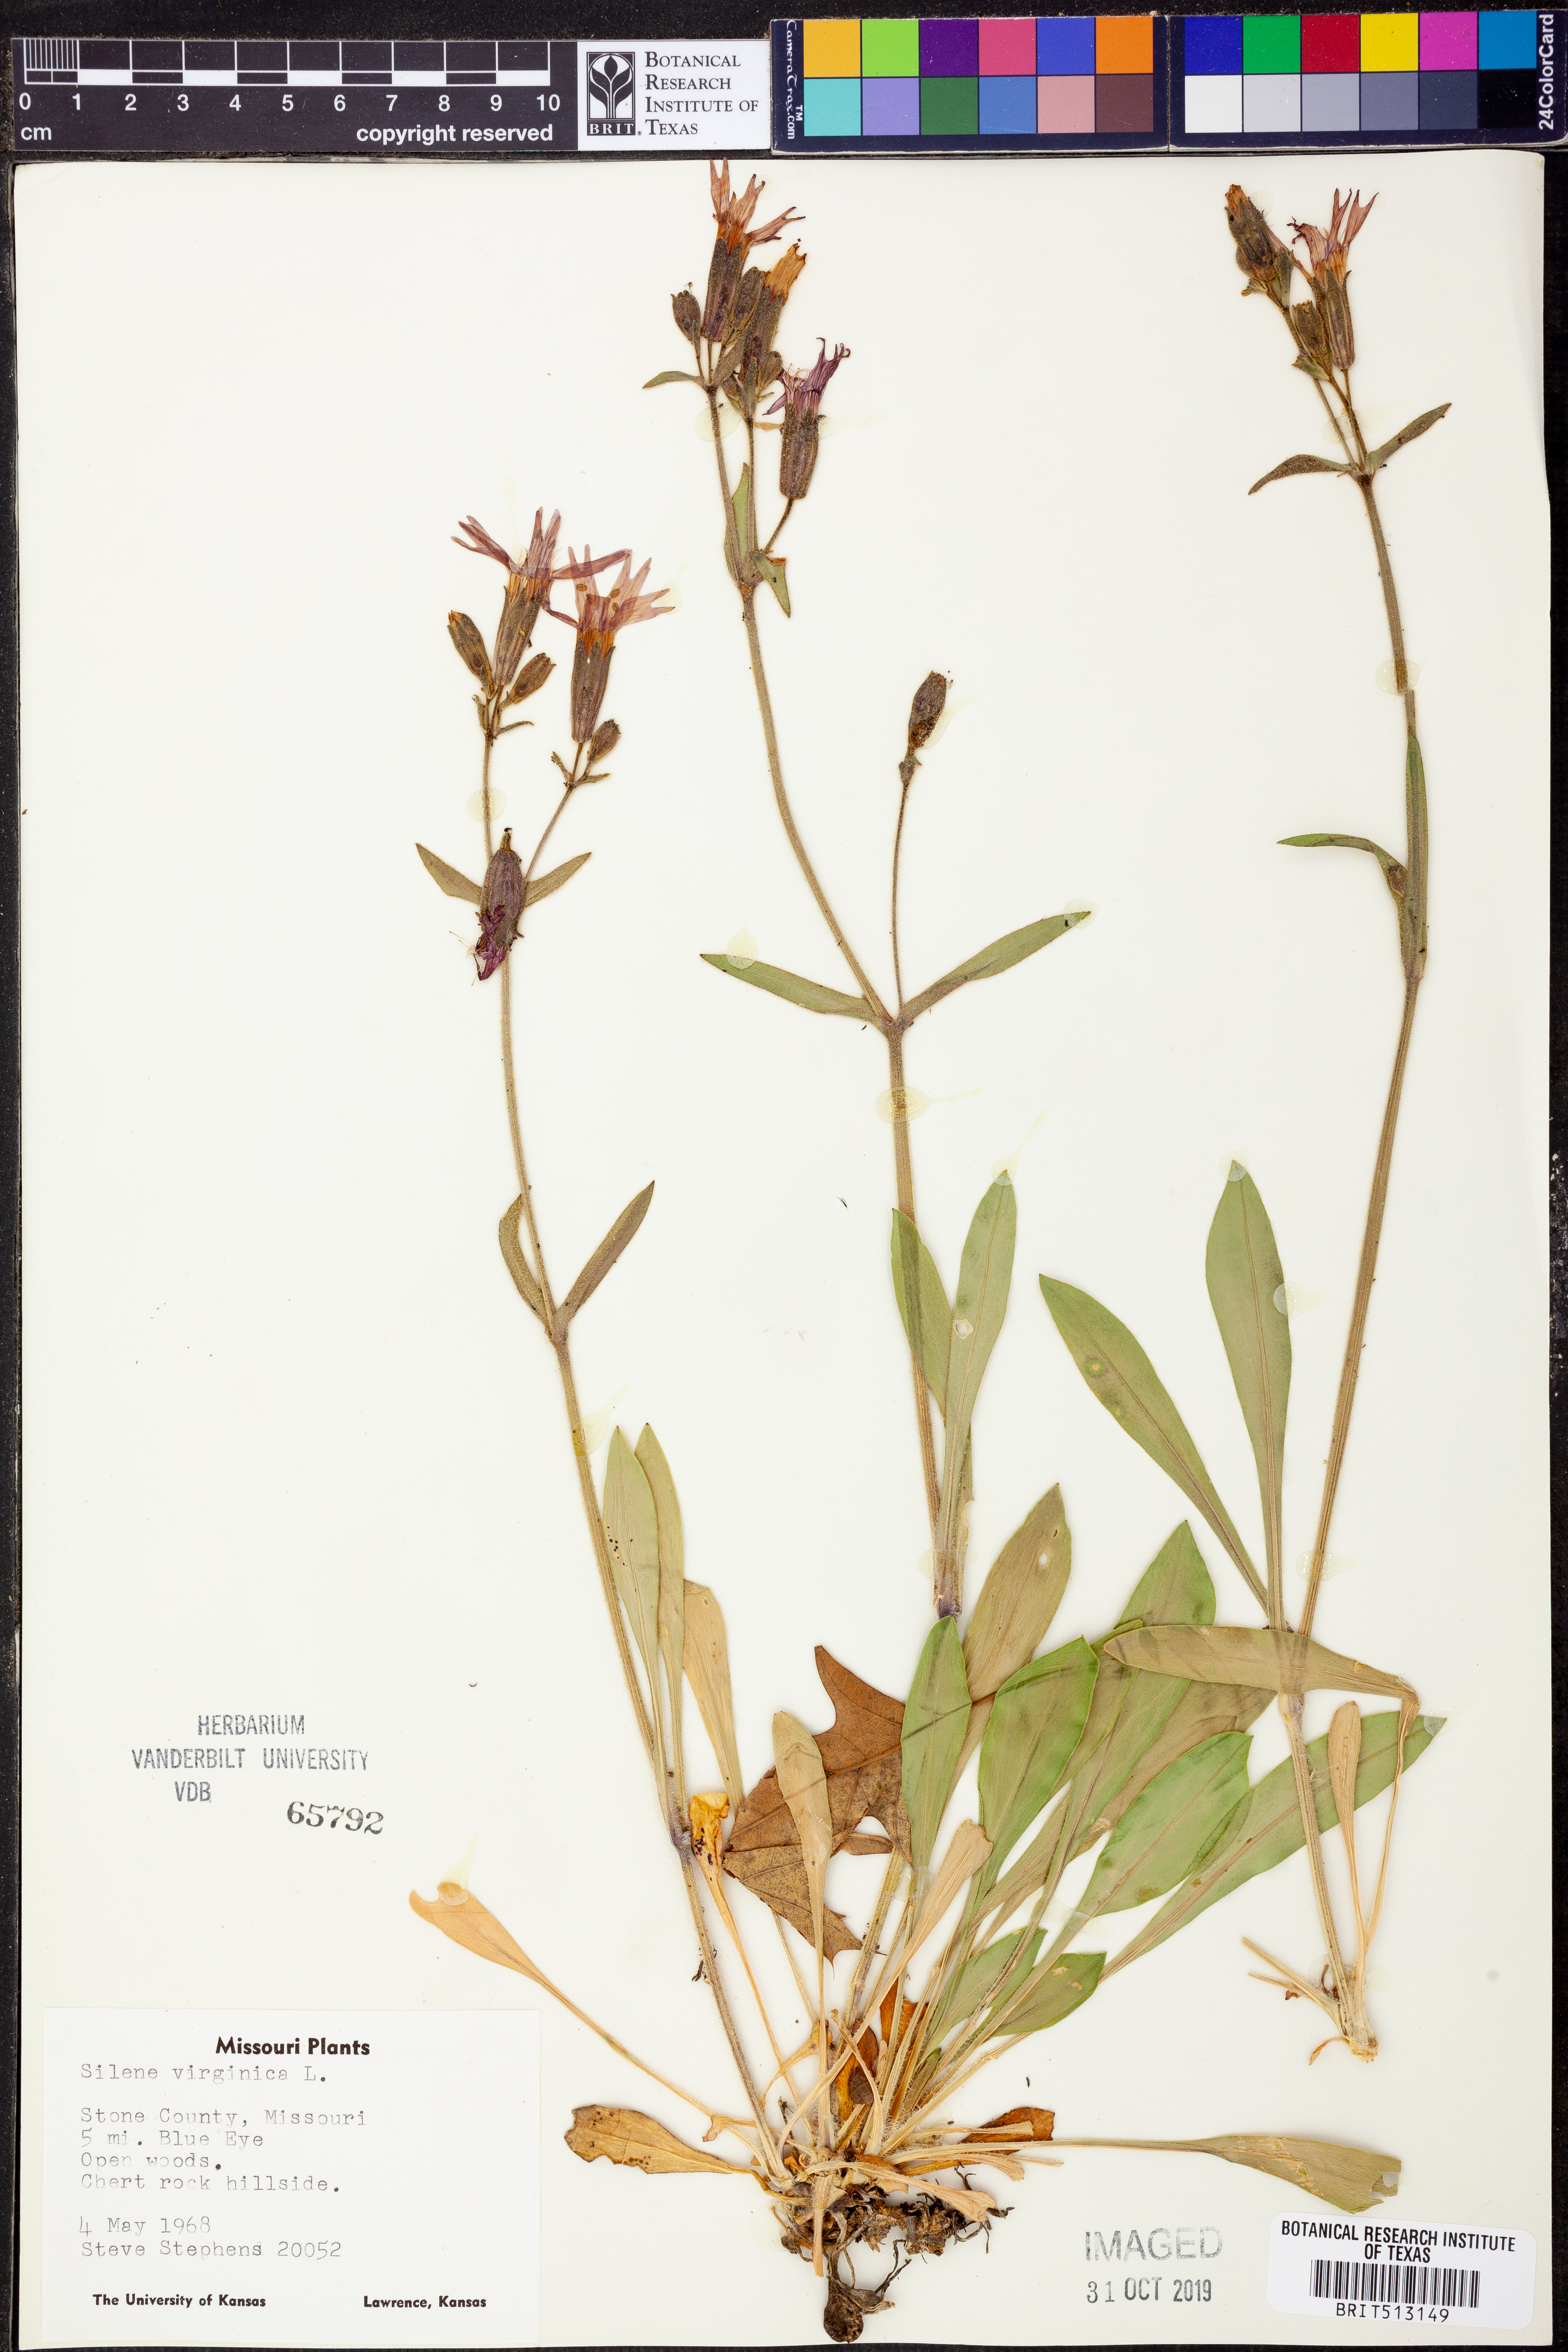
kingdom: Plantae
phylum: Tracheophyta
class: Magnoliopsida
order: Caryophyllales
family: Caryophyllaceae
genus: Silene
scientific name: Silene virginica
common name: Fire-pink
